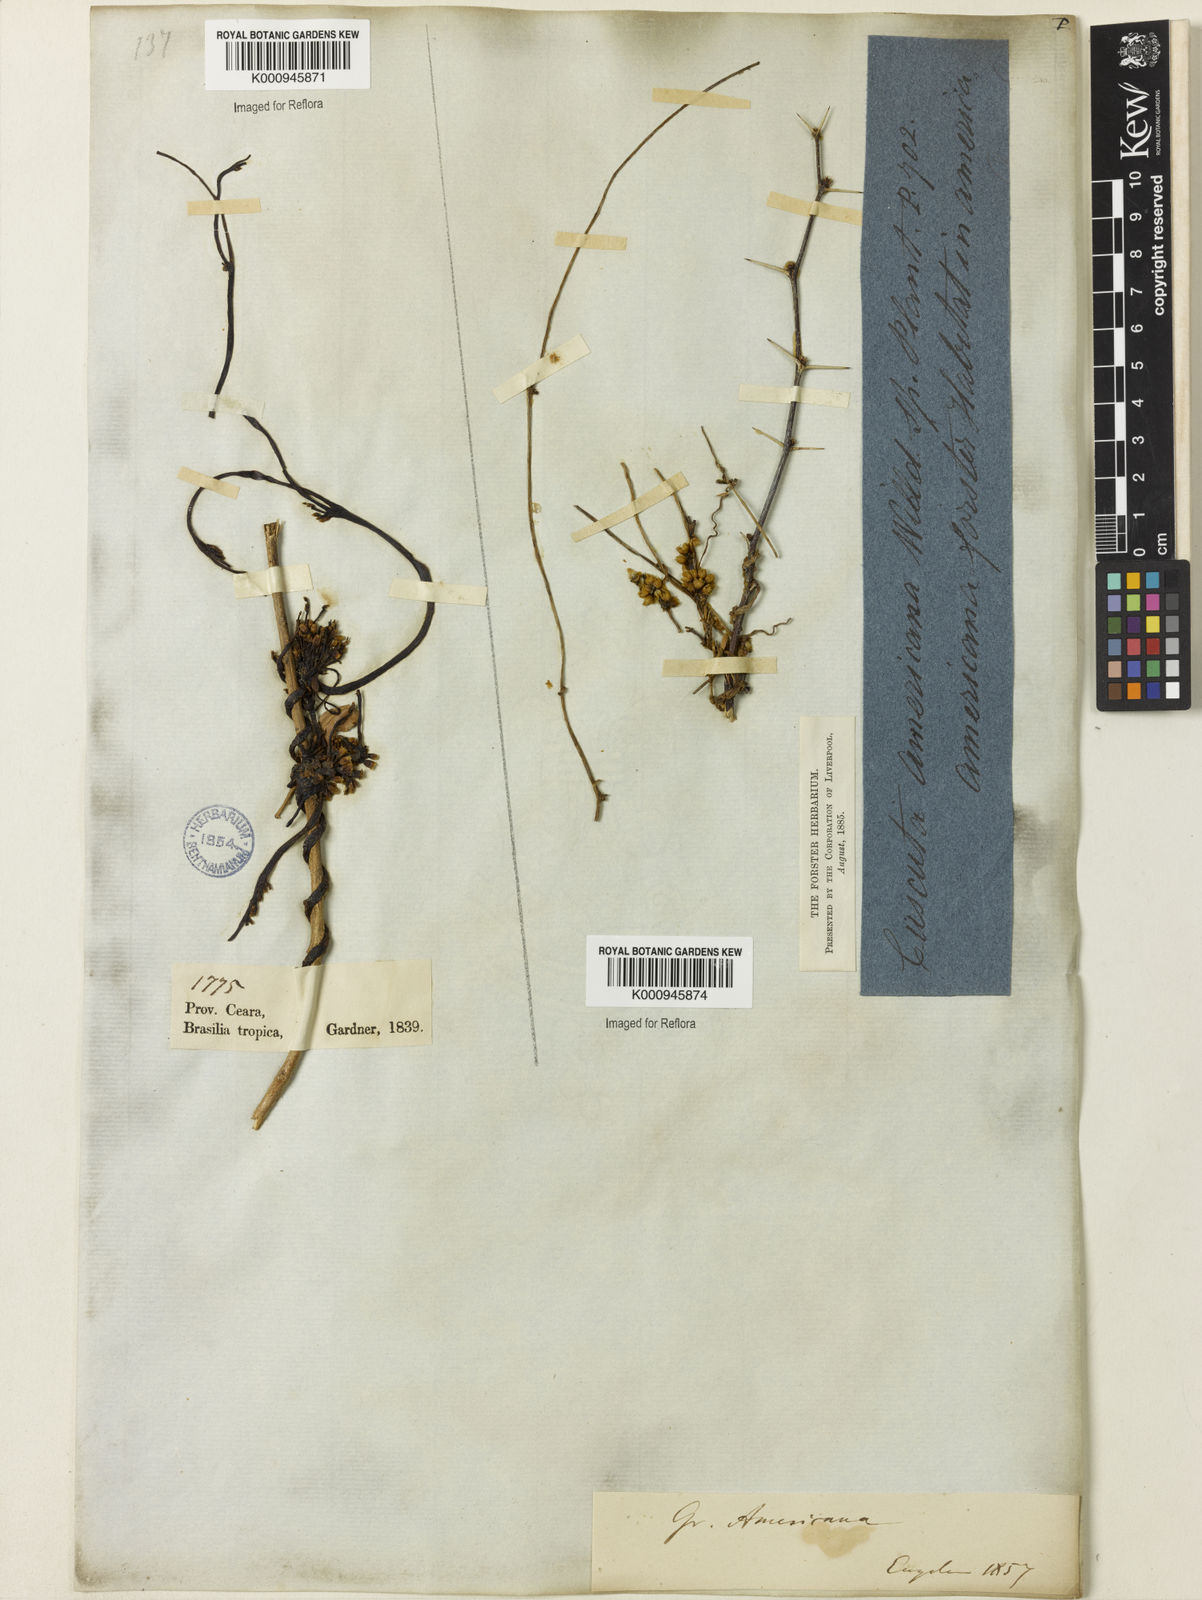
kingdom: Plantae
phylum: Tracheophyta
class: Magnoliopsida
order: Solanales
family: Convolvulaceae
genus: Cuscuta
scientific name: Cuscuta americana
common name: American dodder
